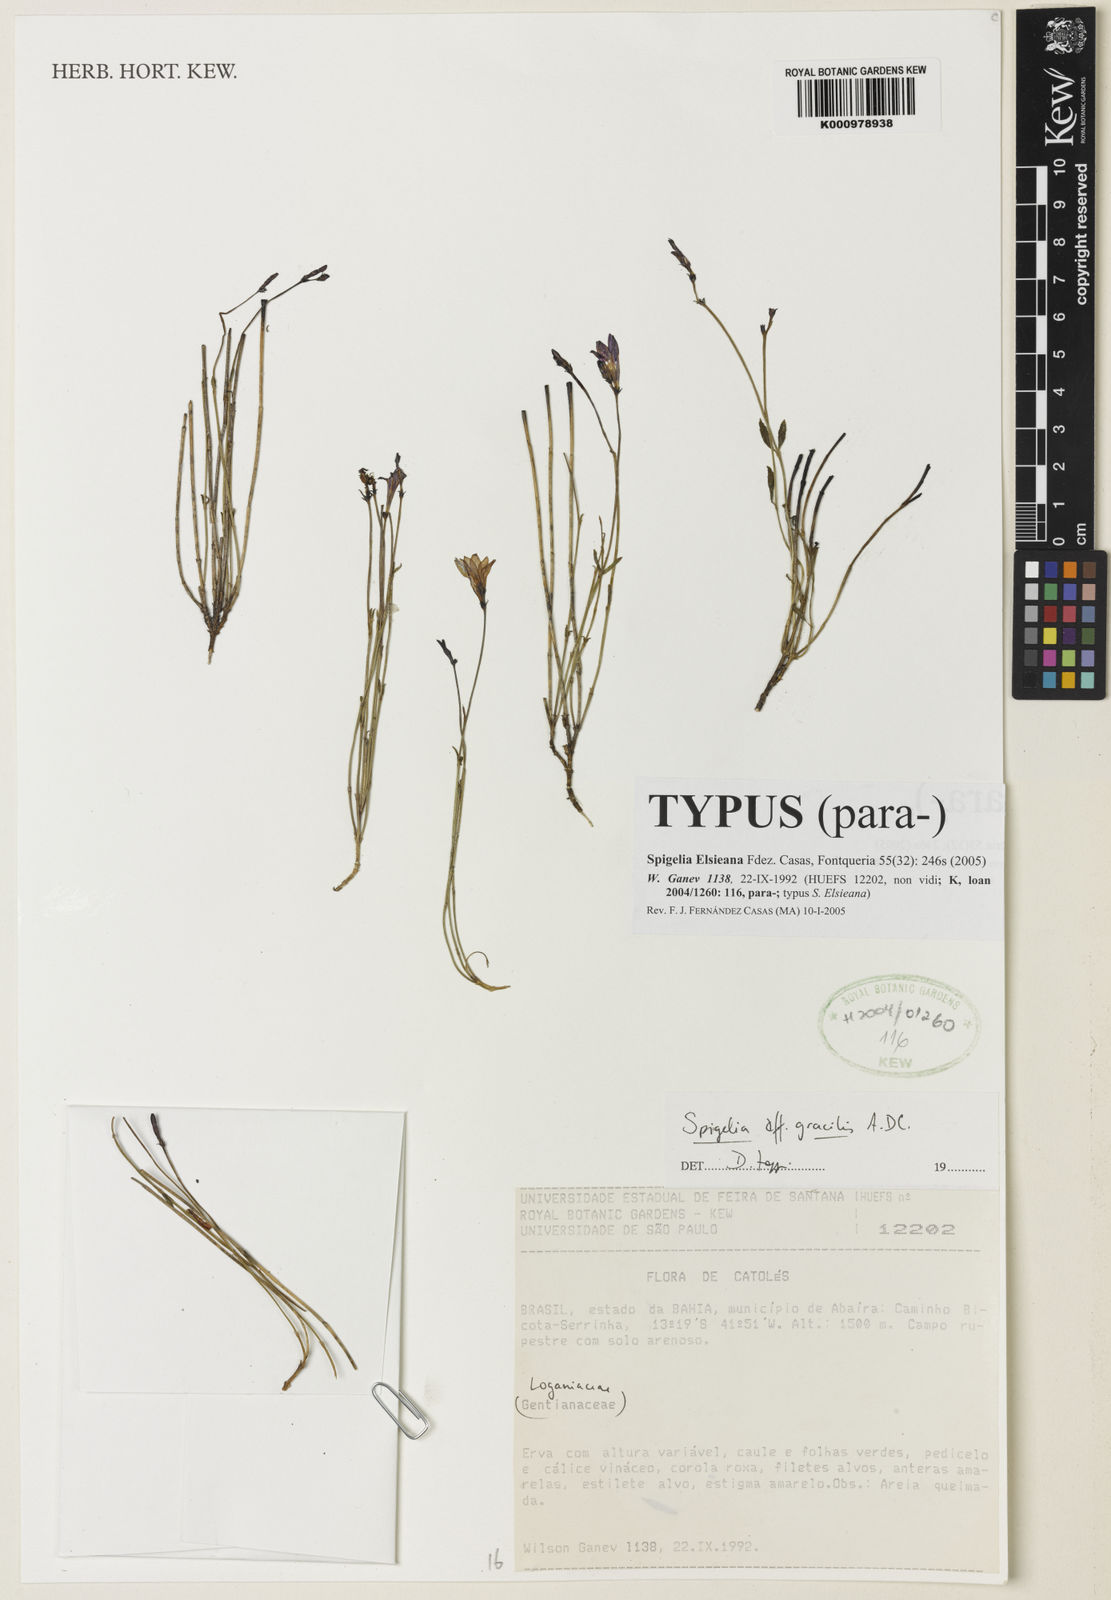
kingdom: Plantae
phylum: Tracheophyta
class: Magnoliopsida
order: Gentianales
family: Loganiaceae
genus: Spigelia
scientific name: Spigelia
